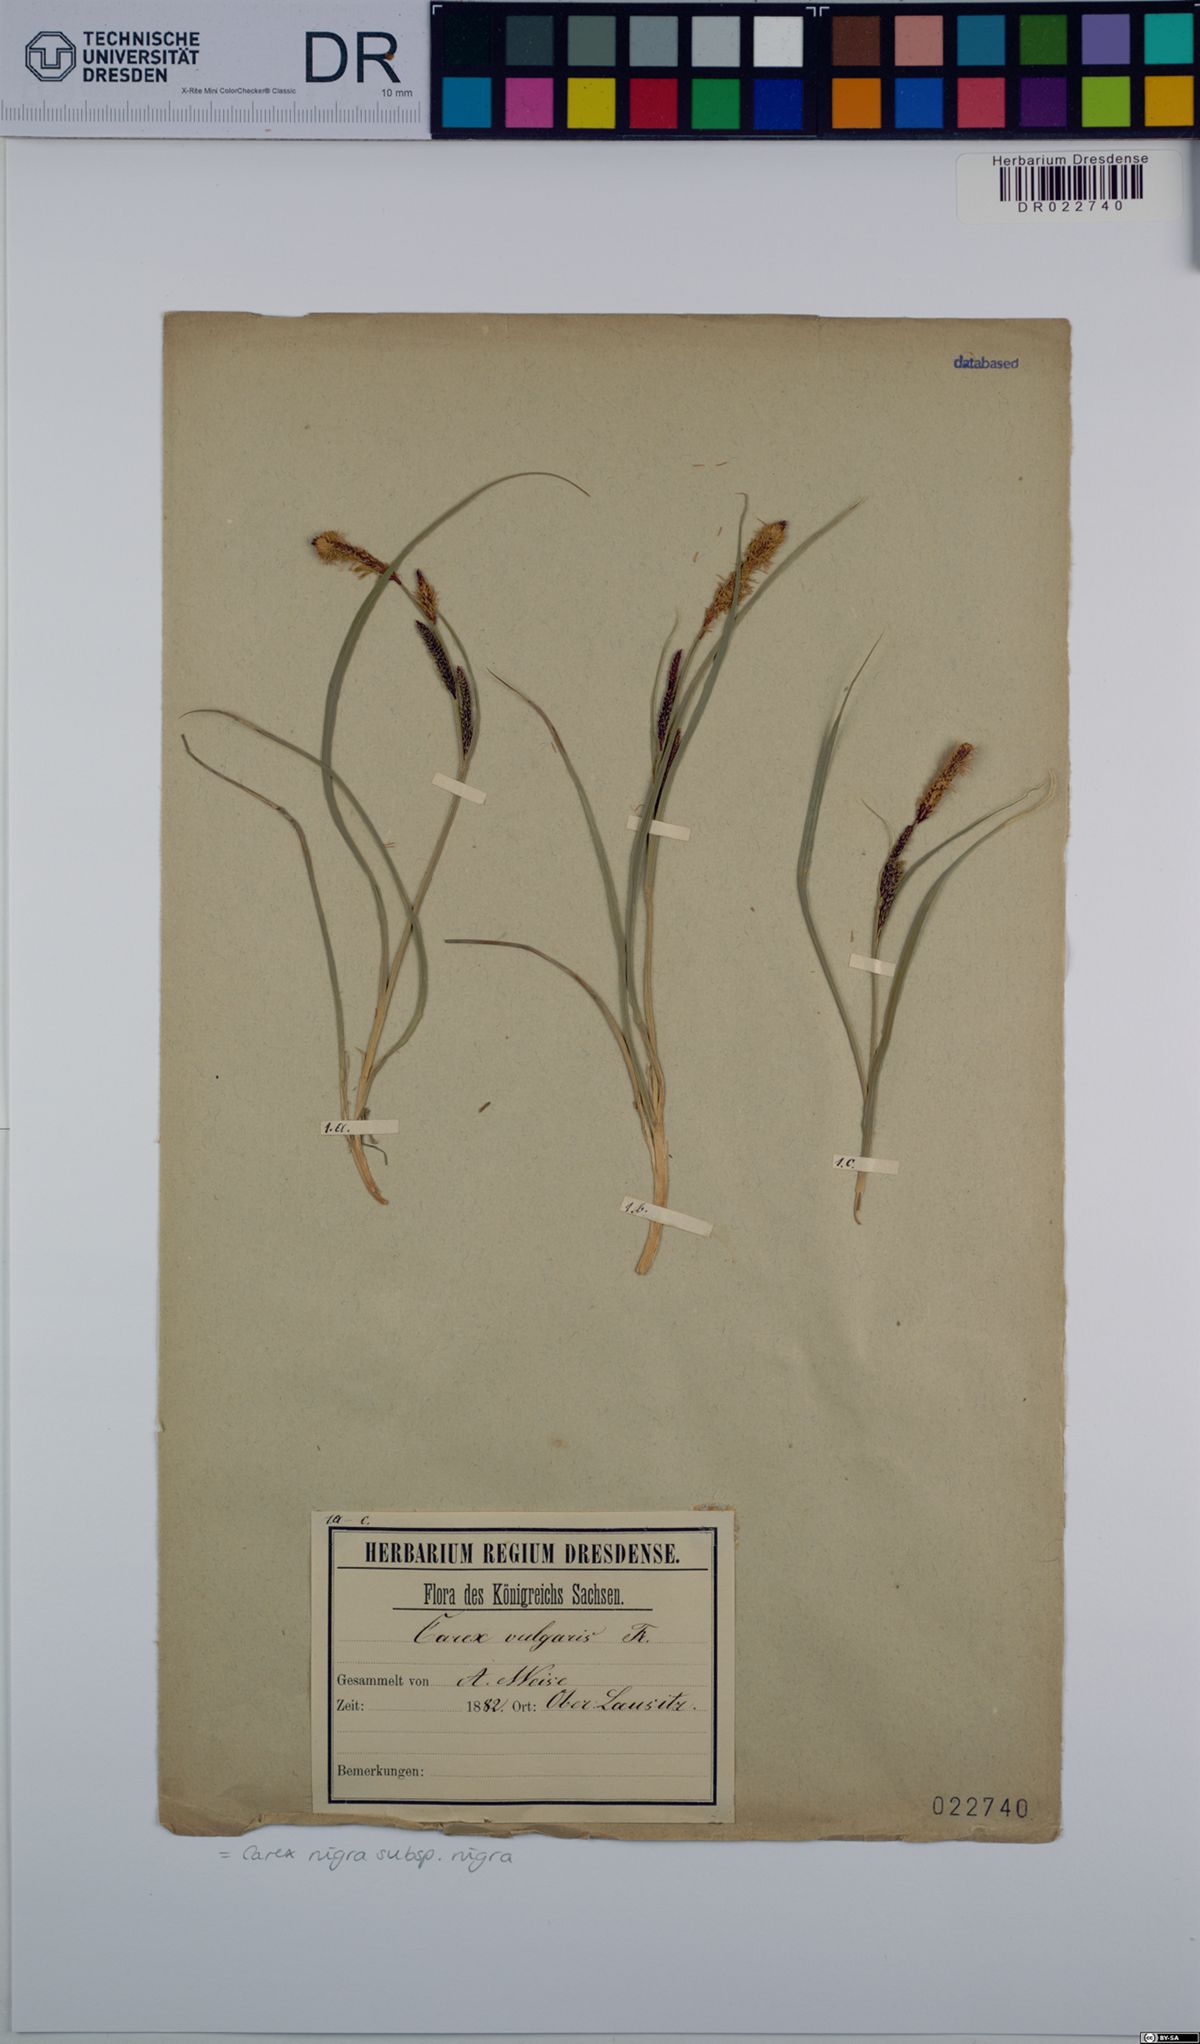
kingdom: Plantae
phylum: Tracheophyta
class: Liliopsida
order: Poales
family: Cyperaceae
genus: Carex
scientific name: Carex nigra
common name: Common sedge
